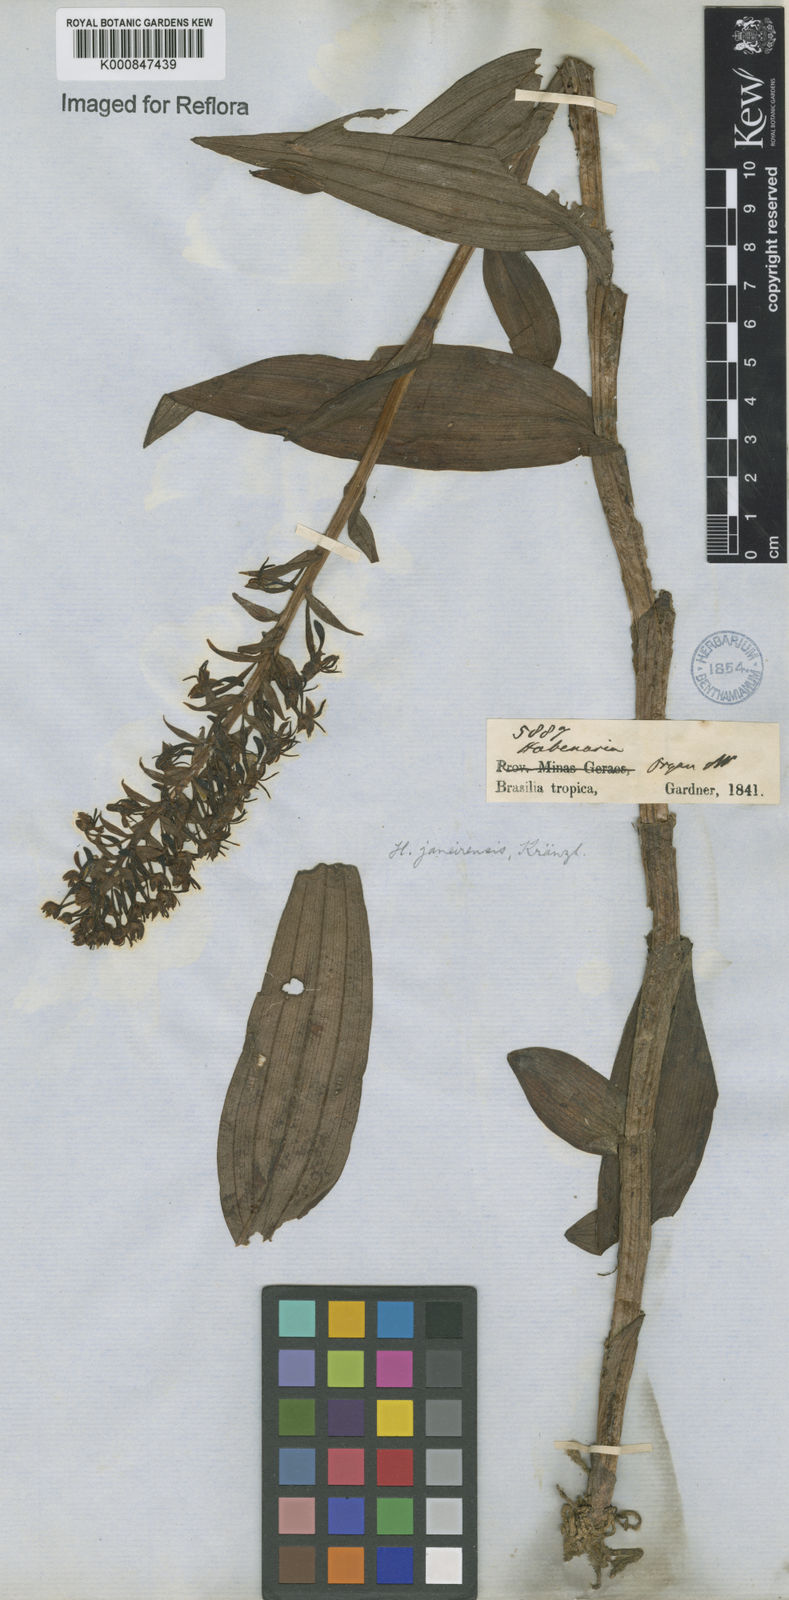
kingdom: Plantae
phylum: Tracheophyta
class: Liliopsida
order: Asparagales
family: Orchidaceae
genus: Habenaria
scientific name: Habenaria paranaensis
